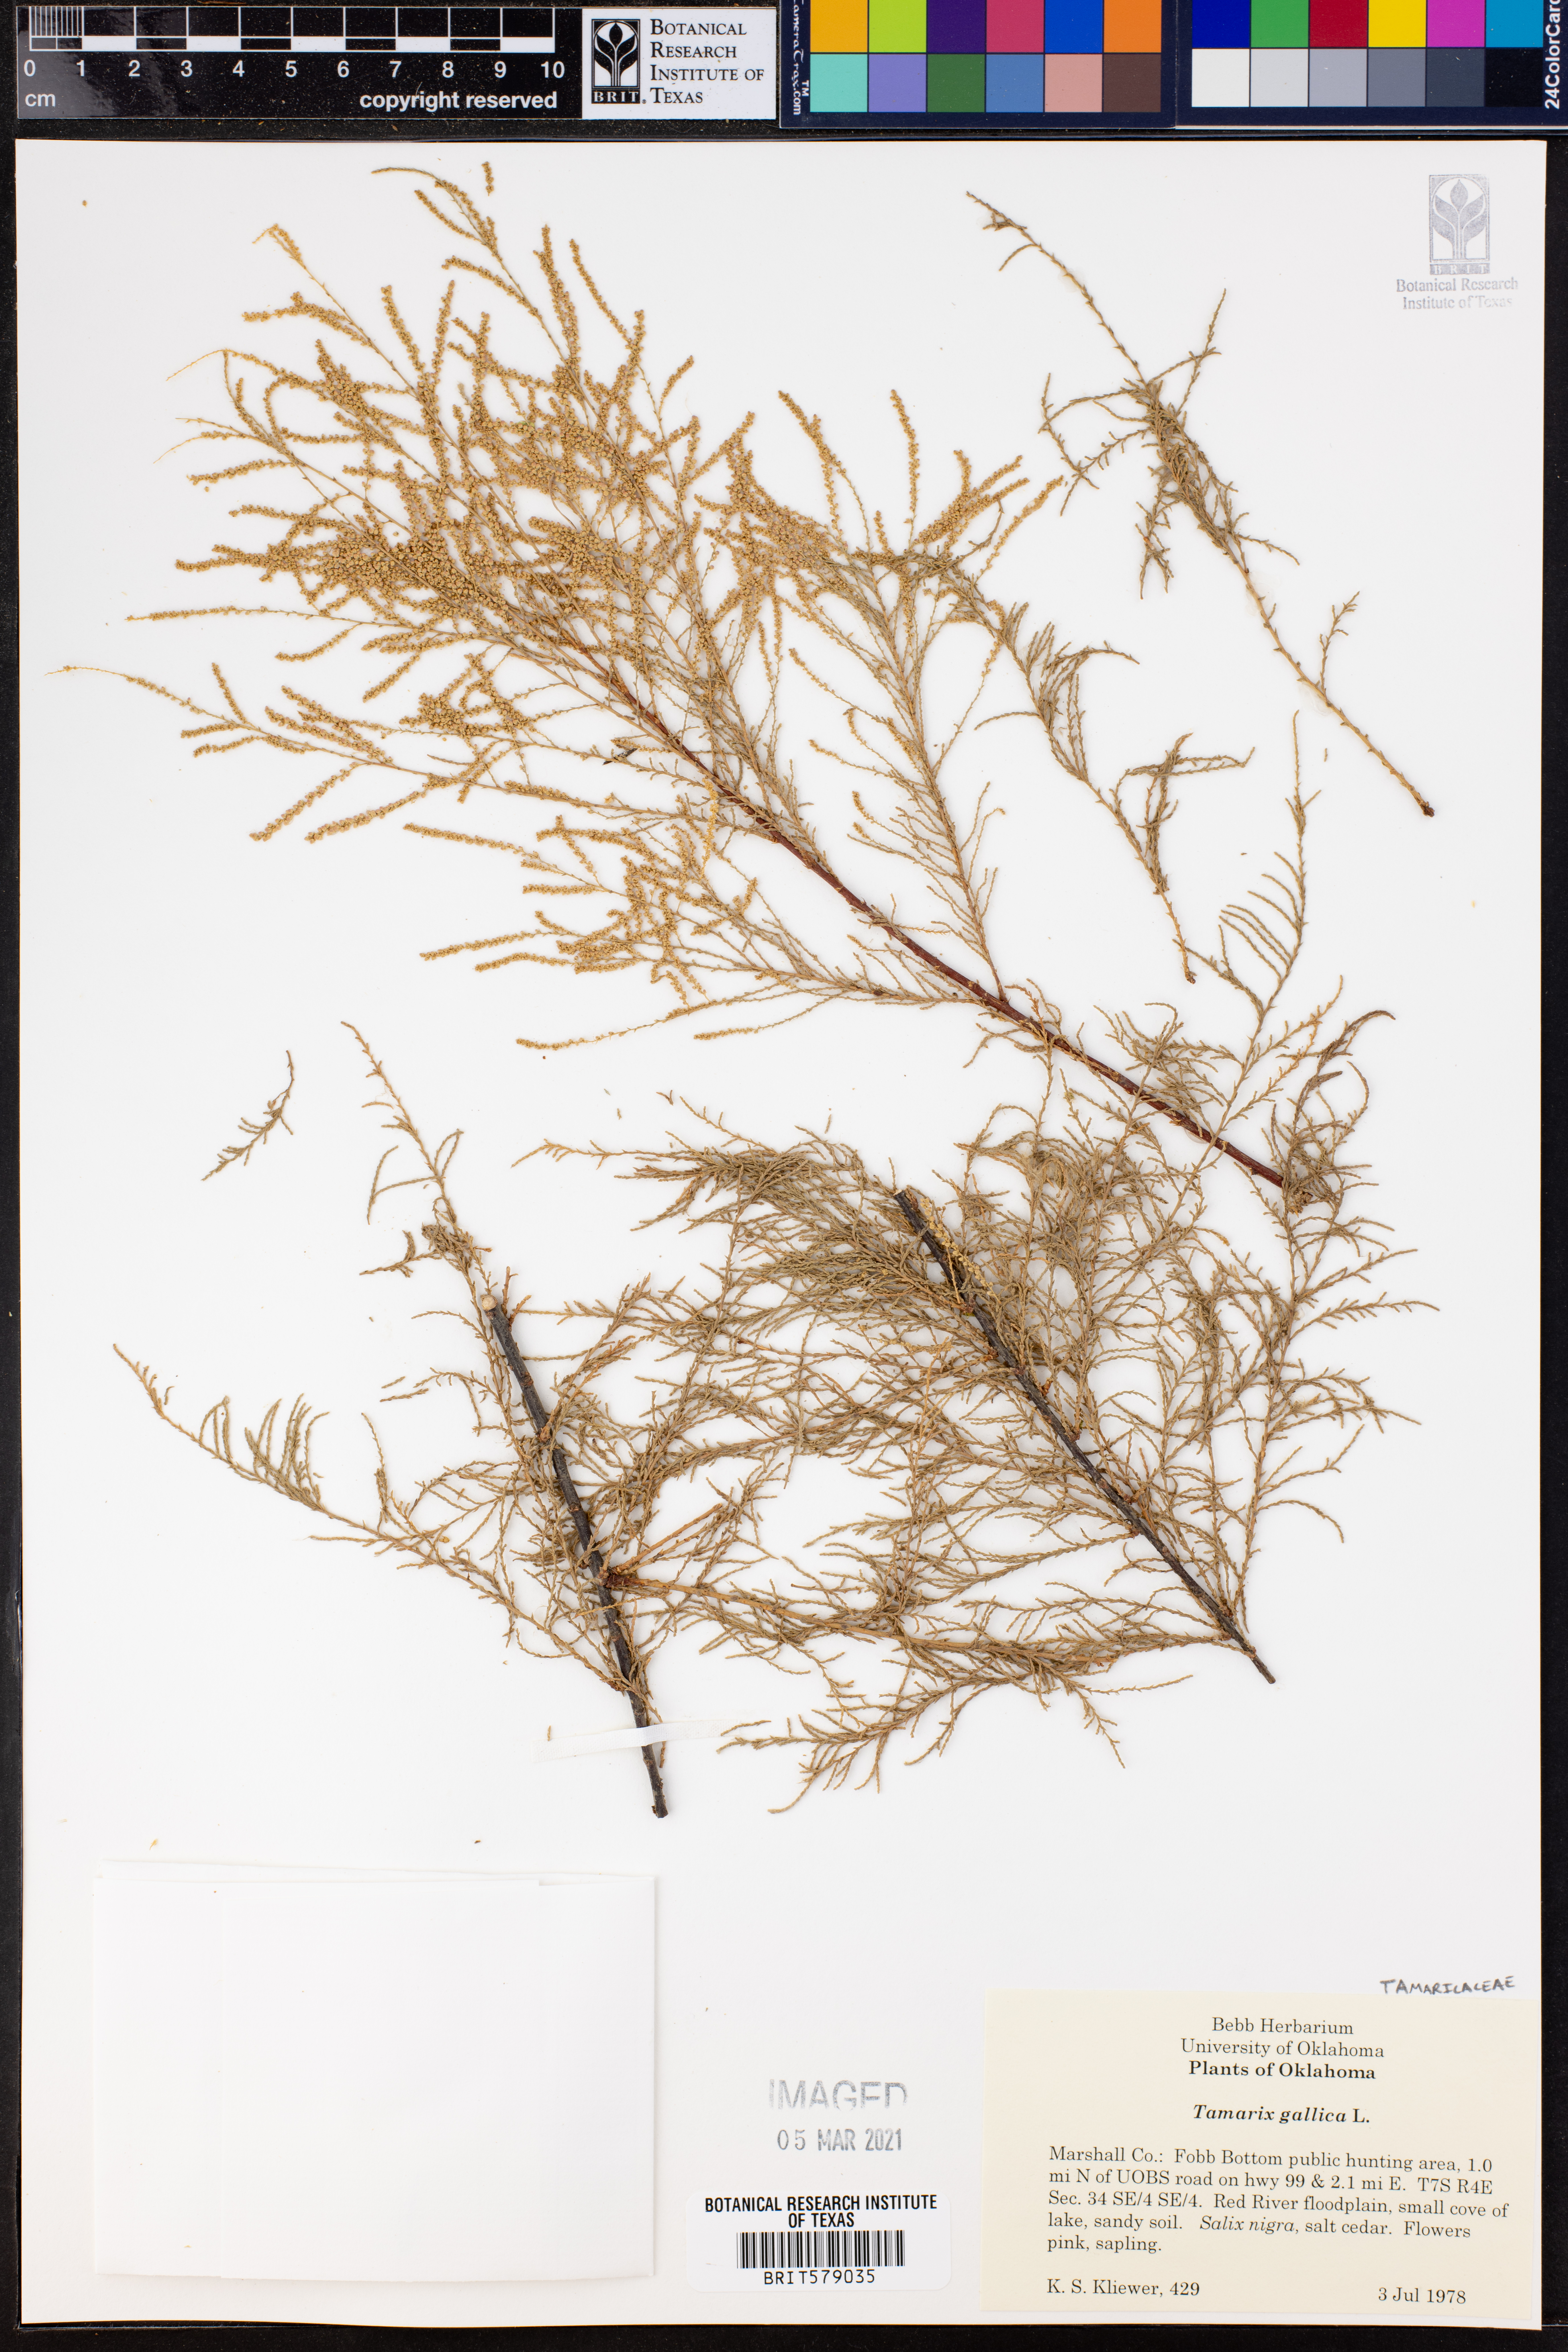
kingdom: Plantae
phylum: Tracheophyta
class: Magnoliopsida
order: Caryophyllales
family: Tamaricaceae
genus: Tamarix
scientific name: Tamarix gallica
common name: Tamarisk
